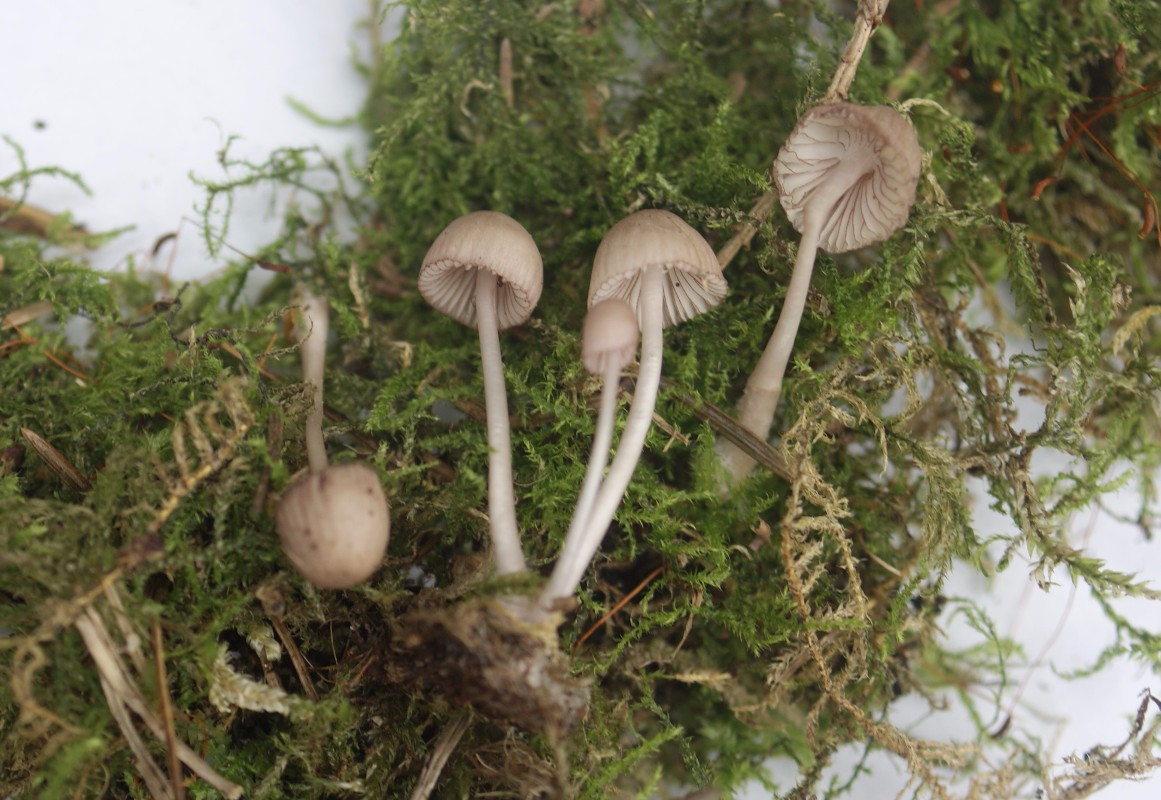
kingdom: Fungi
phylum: Basidiomycota
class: Agaricomycetes
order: Agaricales
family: Mycenaceae
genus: Mycena
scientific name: Mycena rubromarginata
